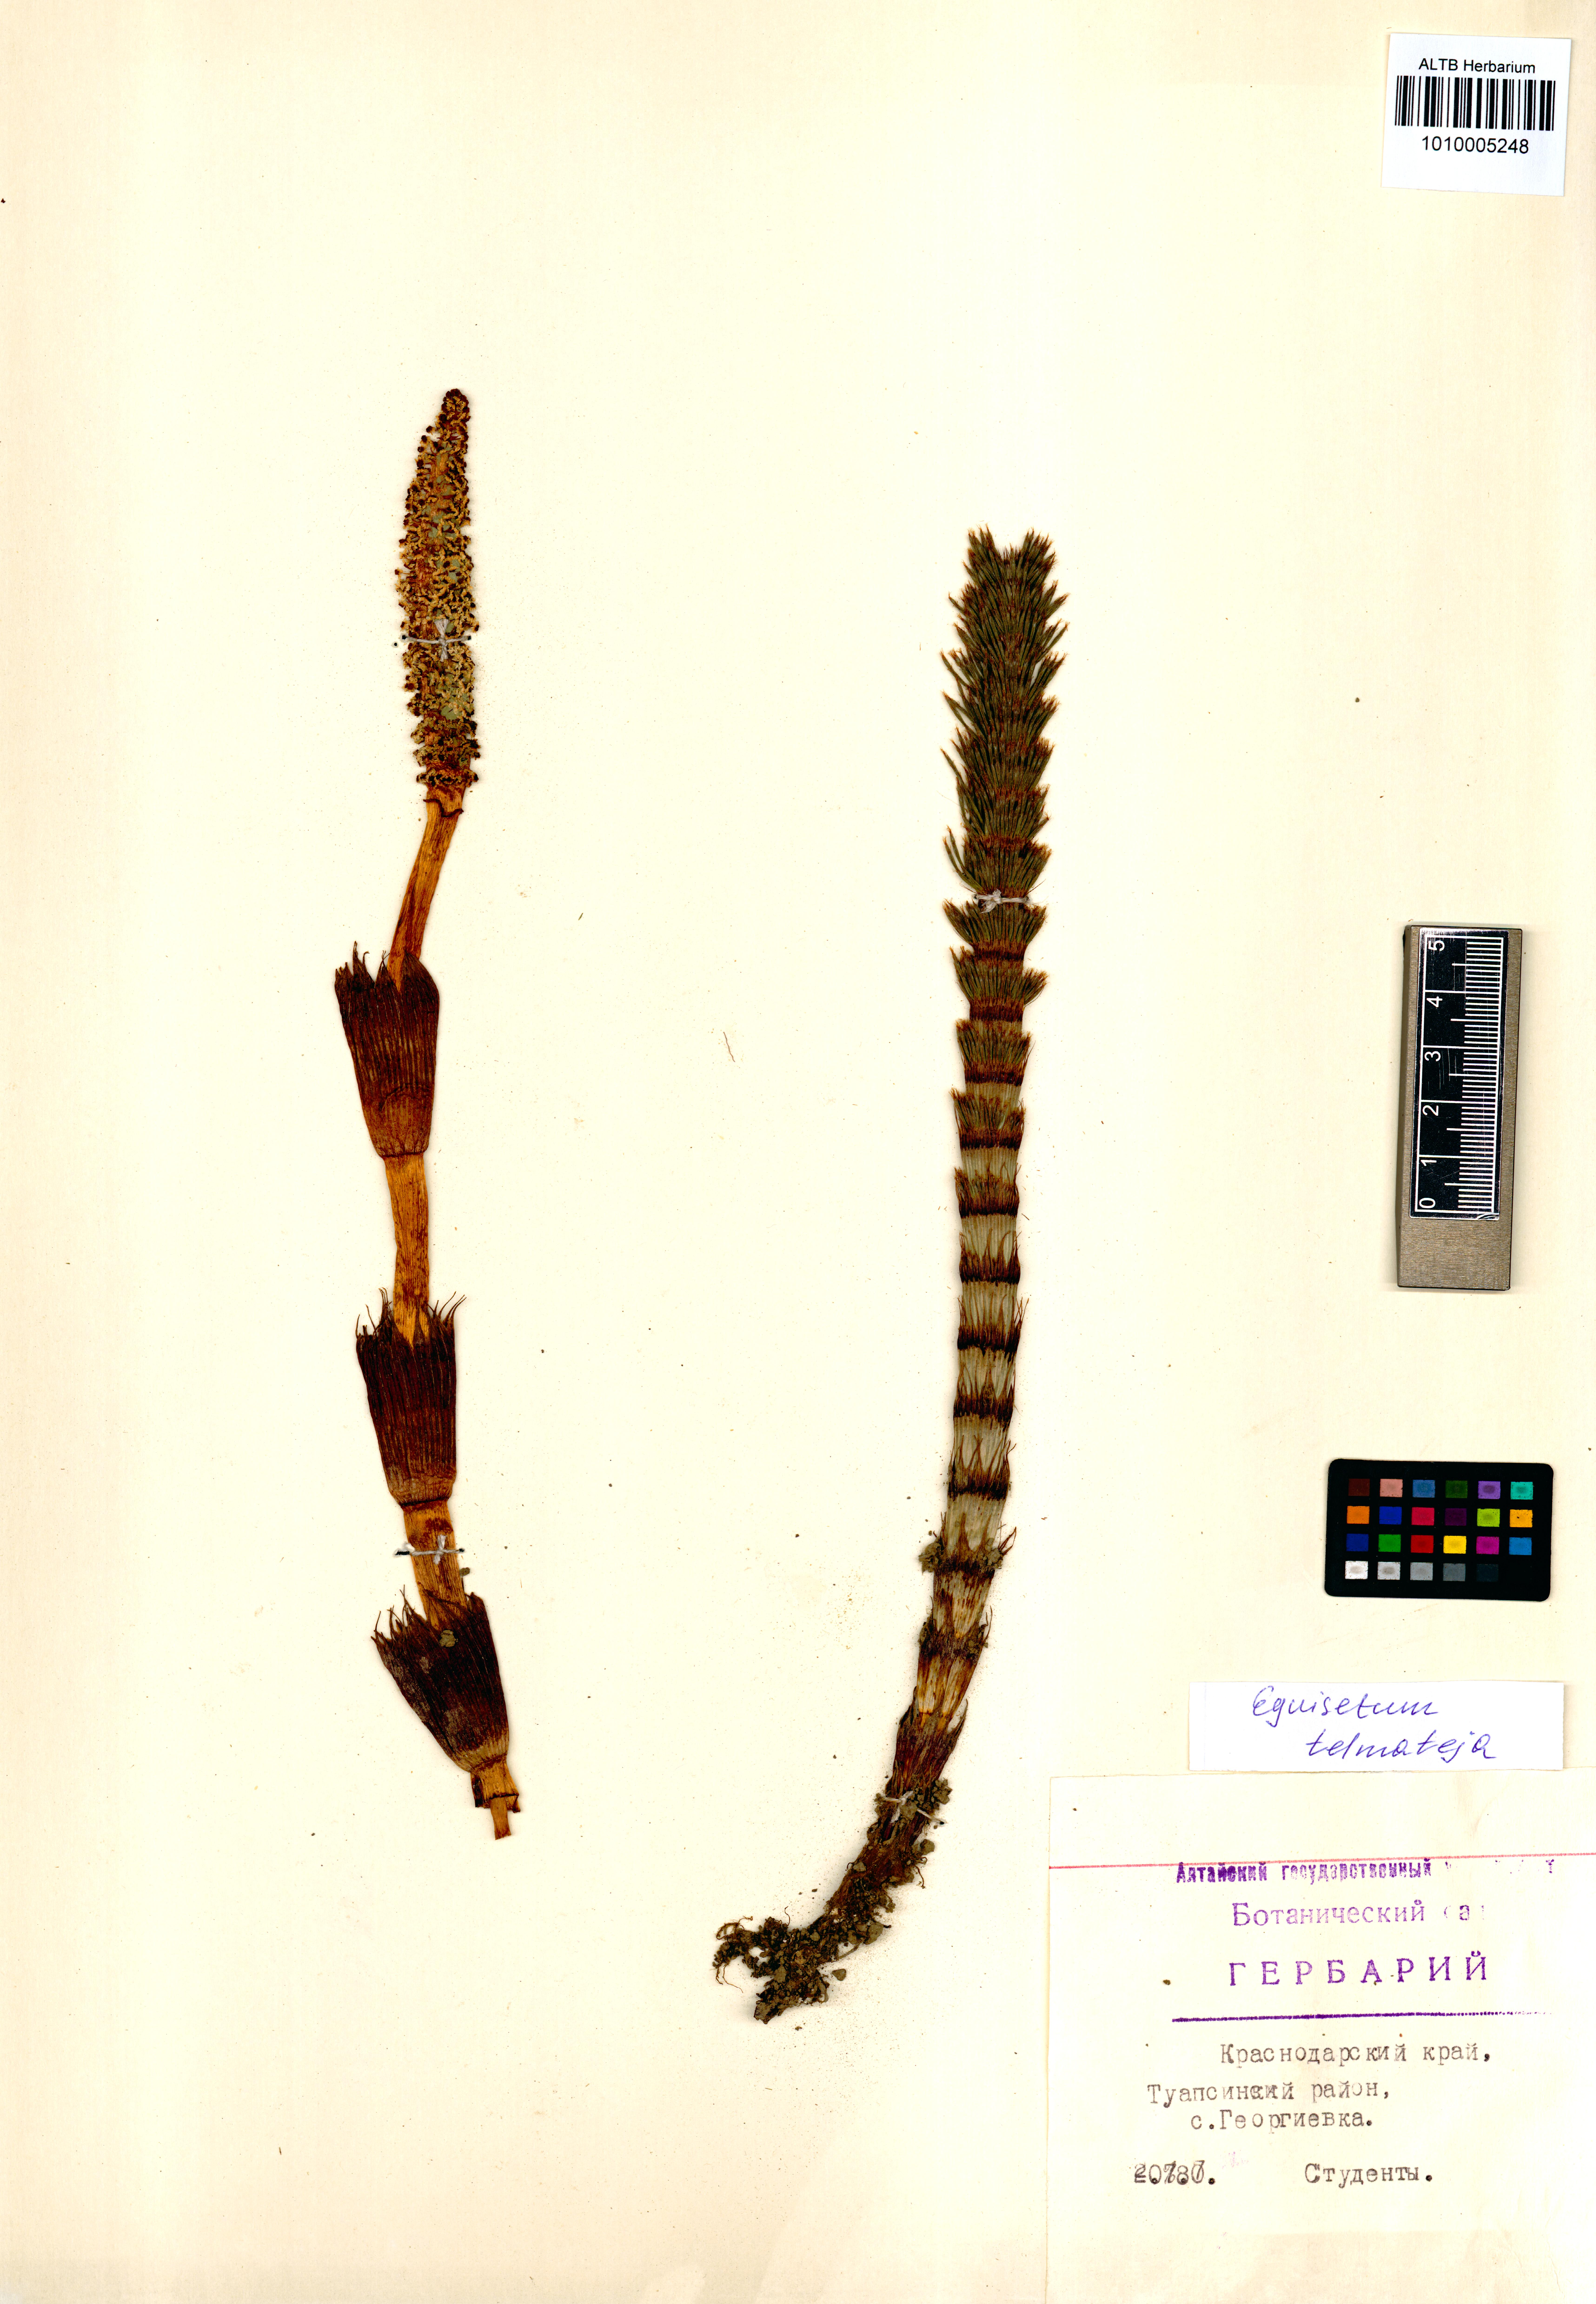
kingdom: Plantae
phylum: Tracheophyta
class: Polypodiopsida
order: Equisetales
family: Equisetaceae
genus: Equisetum
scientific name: Equisetum telmateia
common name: Great horsetail
